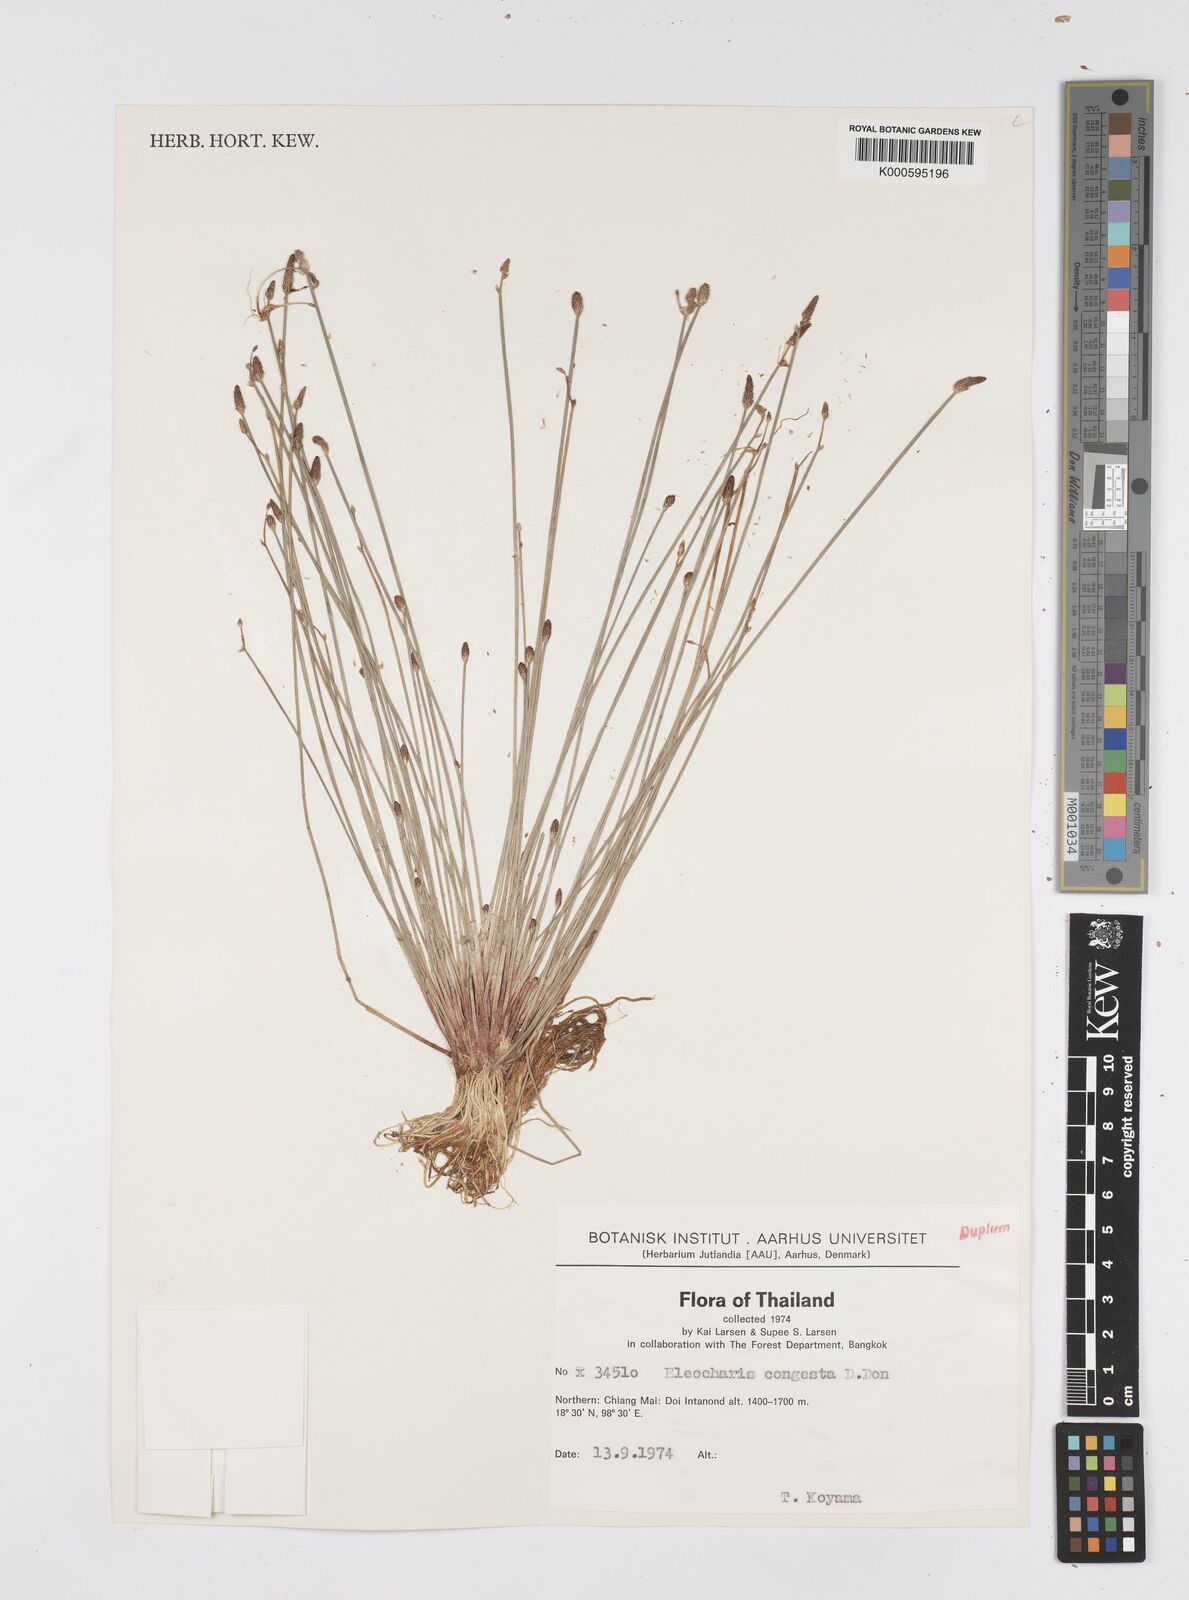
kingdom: Plantae
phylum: Tracheophyta
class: Liliopsida
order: Poales
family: Cyperaceae
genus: Eleocharis
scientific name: Eleocharis congesta
